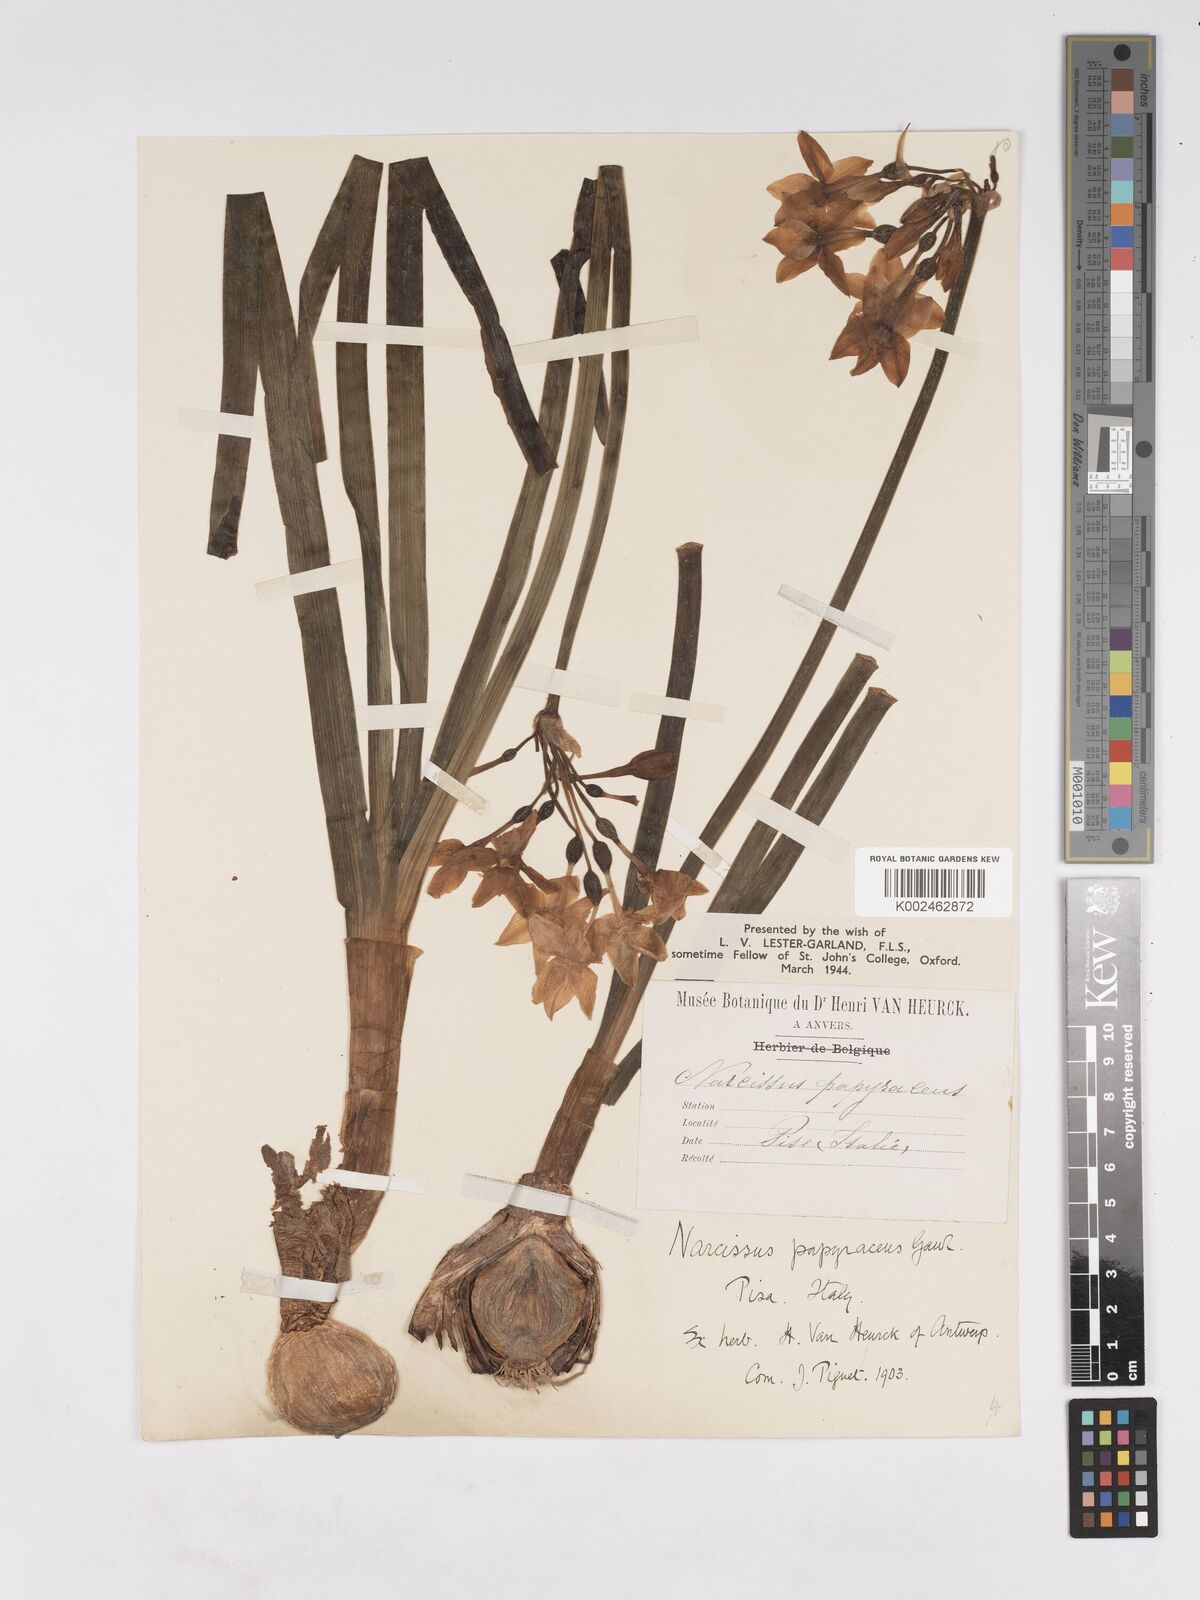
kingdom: Plantae
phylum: Tracheophyta
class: Liliopsida
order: Asparagales
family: Amaryllidaceae
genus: Narcissus
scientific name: Narcissus tazetta
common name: Bunch-flowered daffodil
